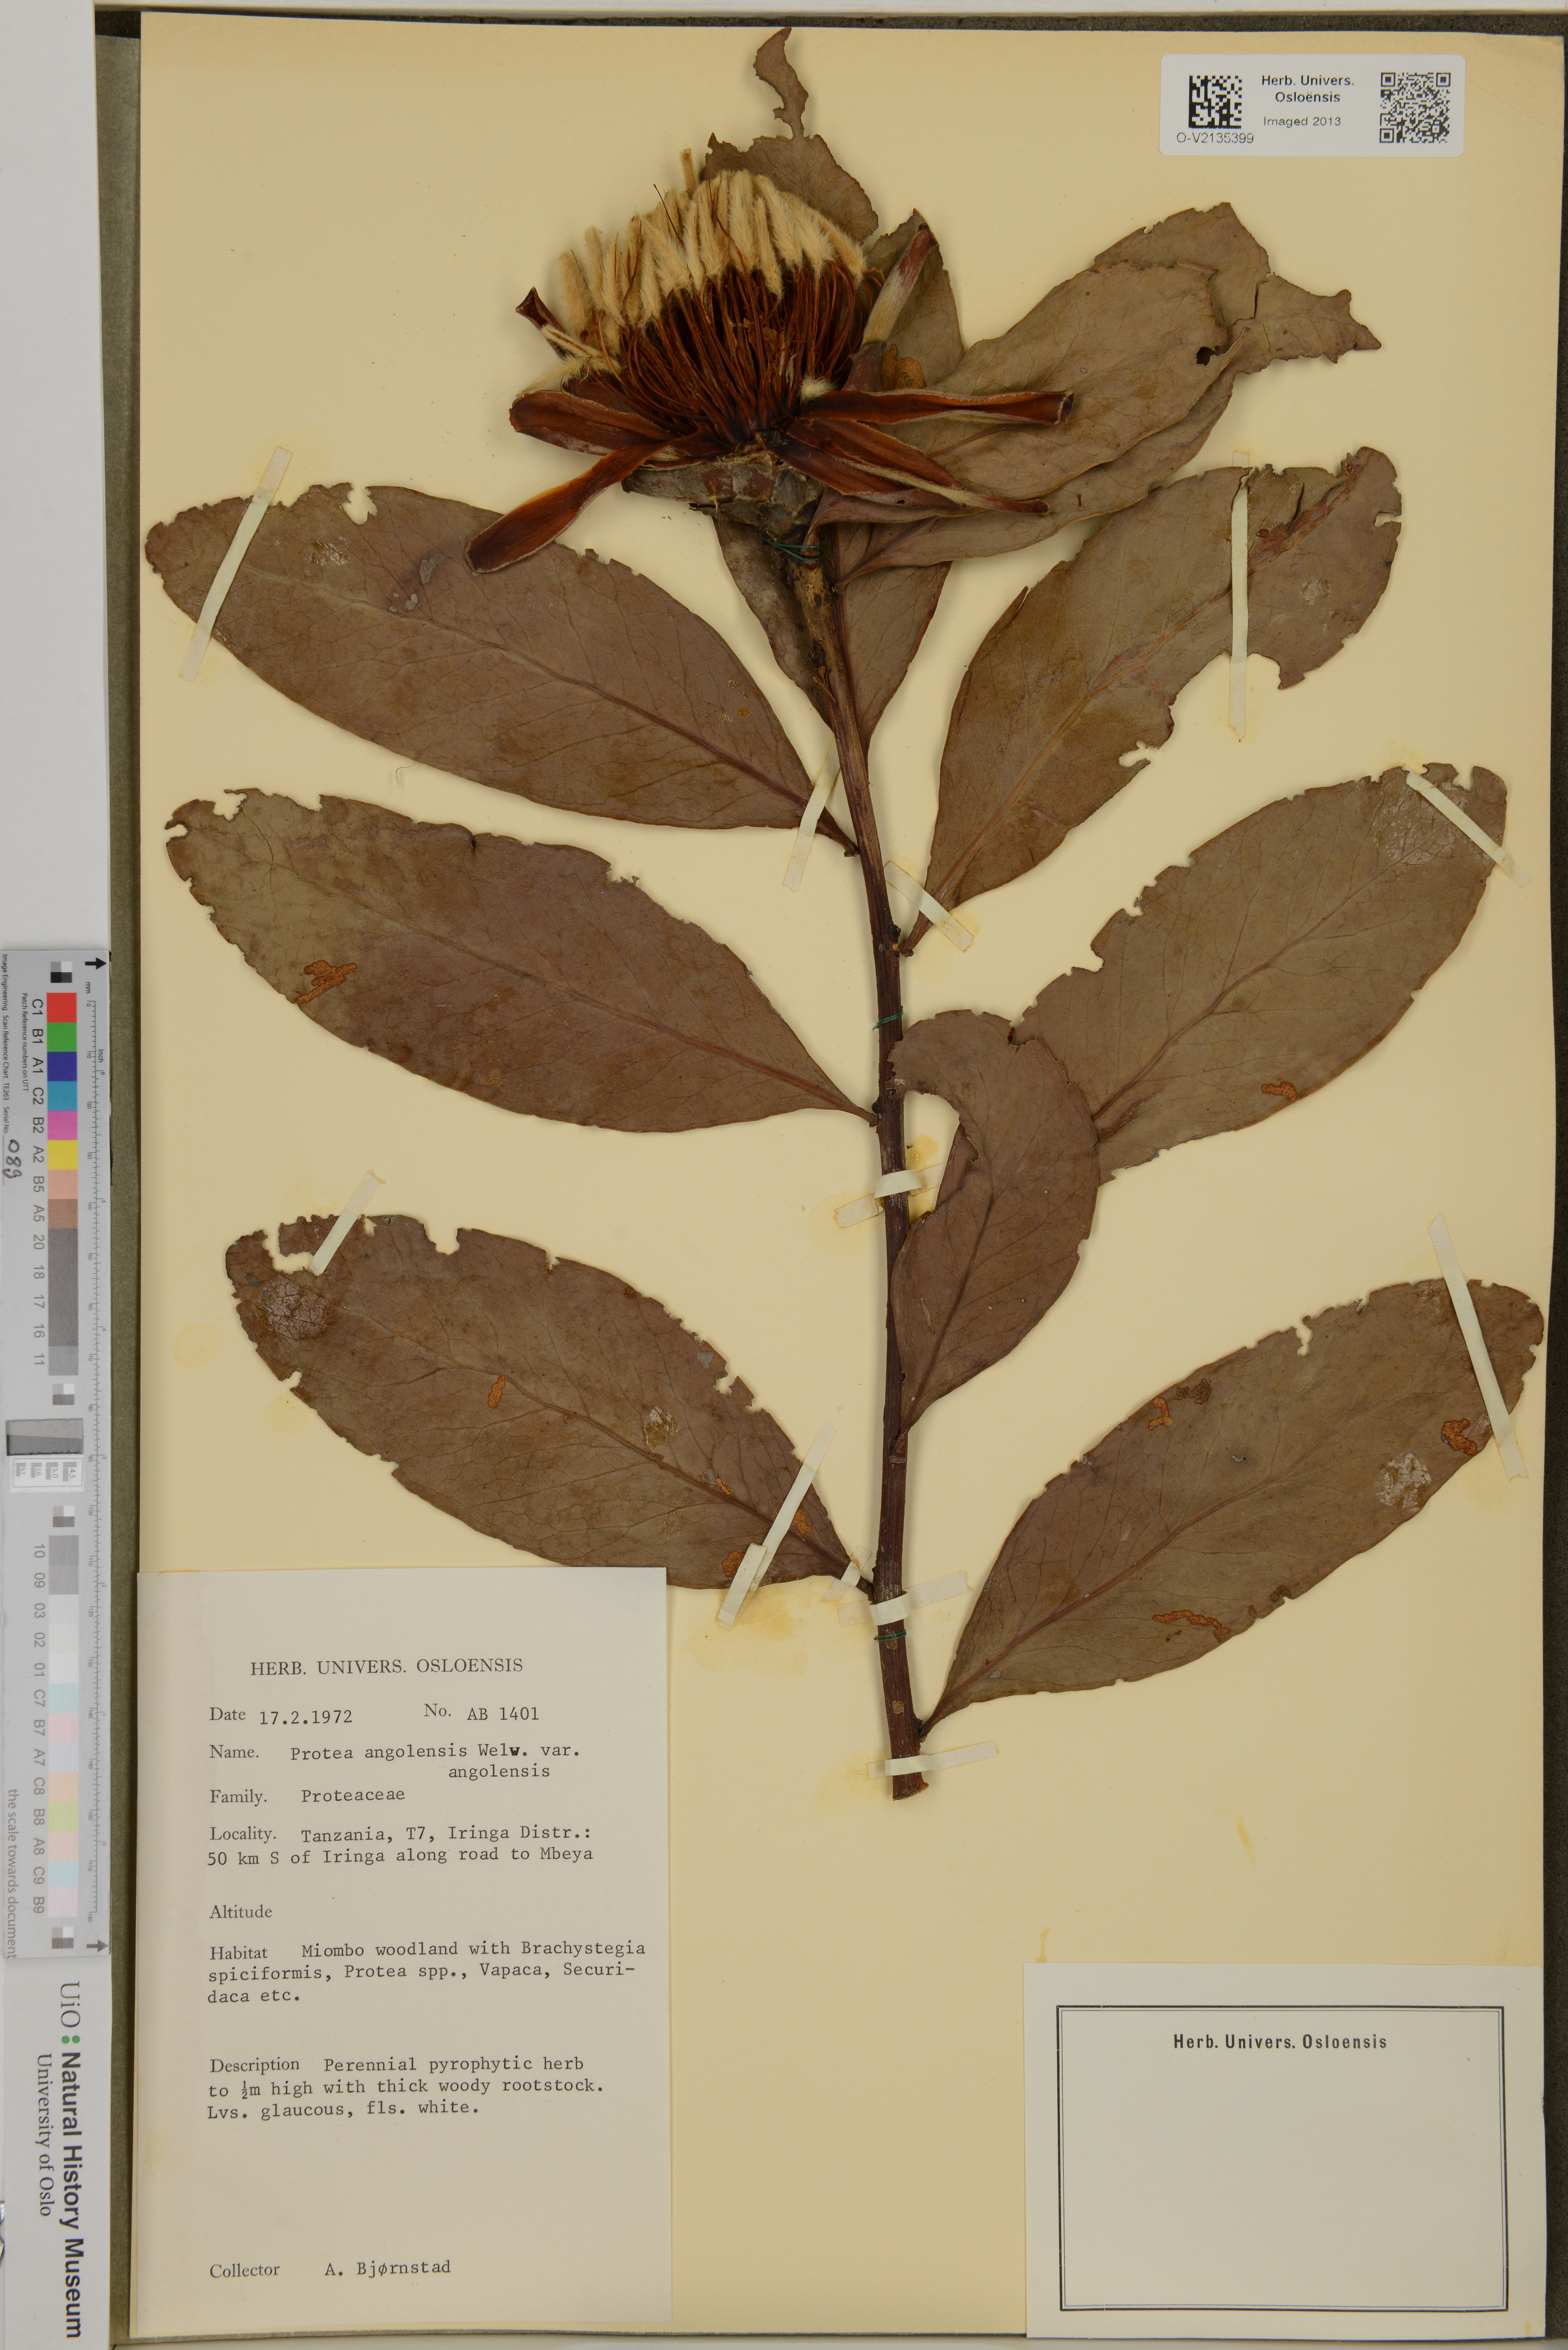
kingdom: Plantae
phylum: Tracheophyta
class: Magnoliopsida
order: Proteales
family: Proteaceae
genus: Protea
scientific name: Protea angolensis
